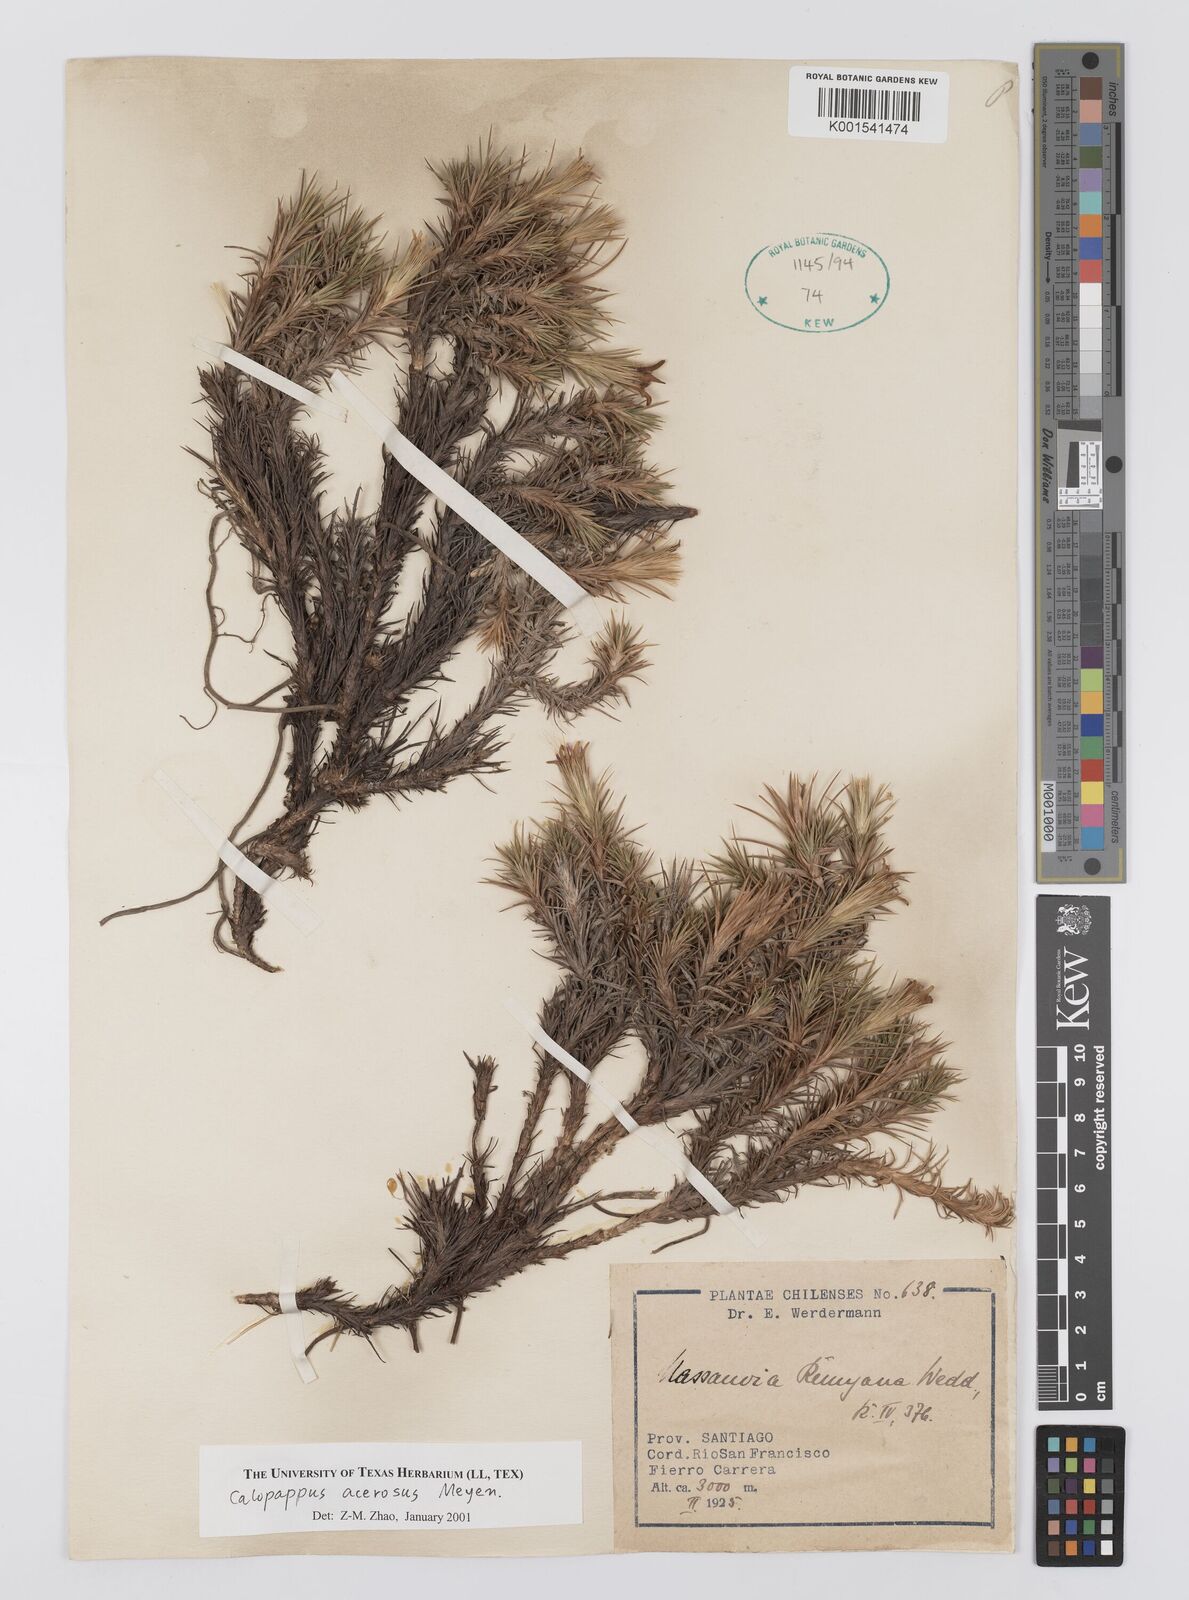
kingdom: Plantae
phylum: Tracheophyta
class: Magnoliopsida
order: Asterales
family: Asteraceae
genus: Nassauvia
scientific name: Nassauvia acerosa
